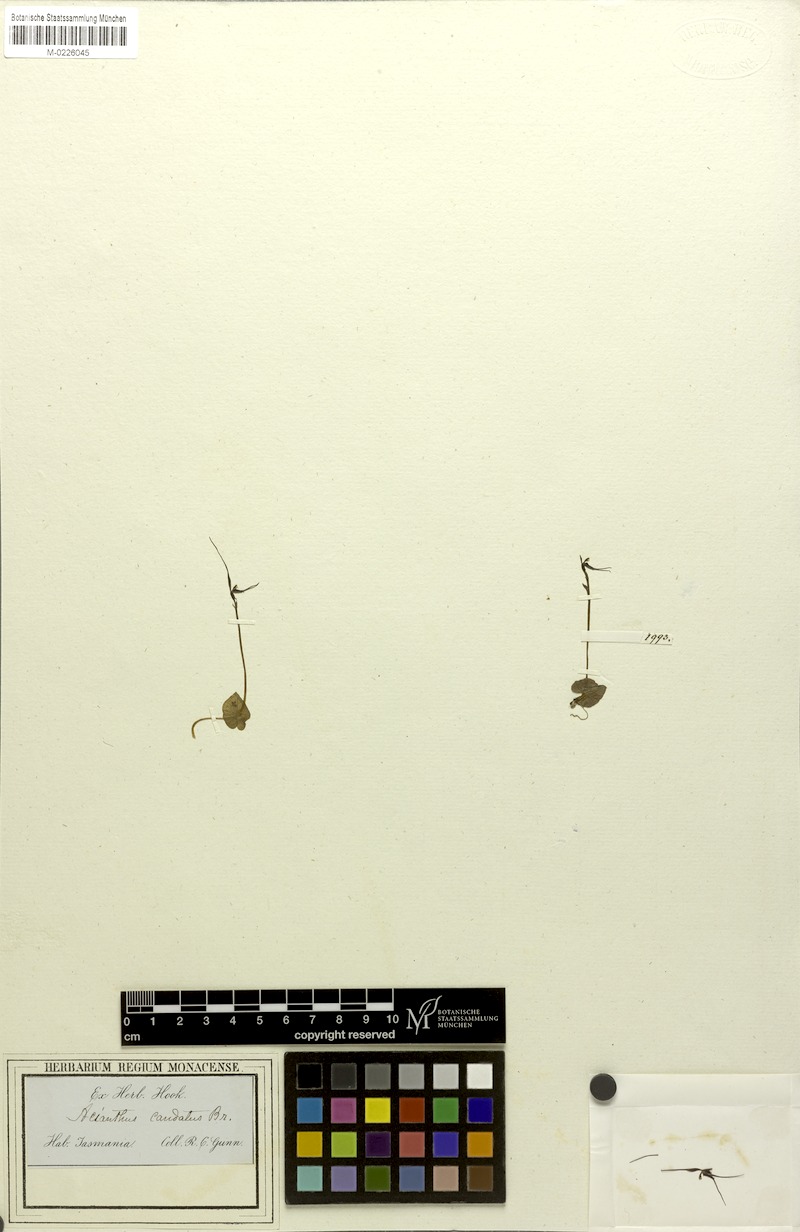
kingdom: Plantae
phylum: Tracheophyta
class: Liliopsida
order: Asparagales
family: Orchidaceae
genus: Acianthus
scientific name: Acianthus caudatus
